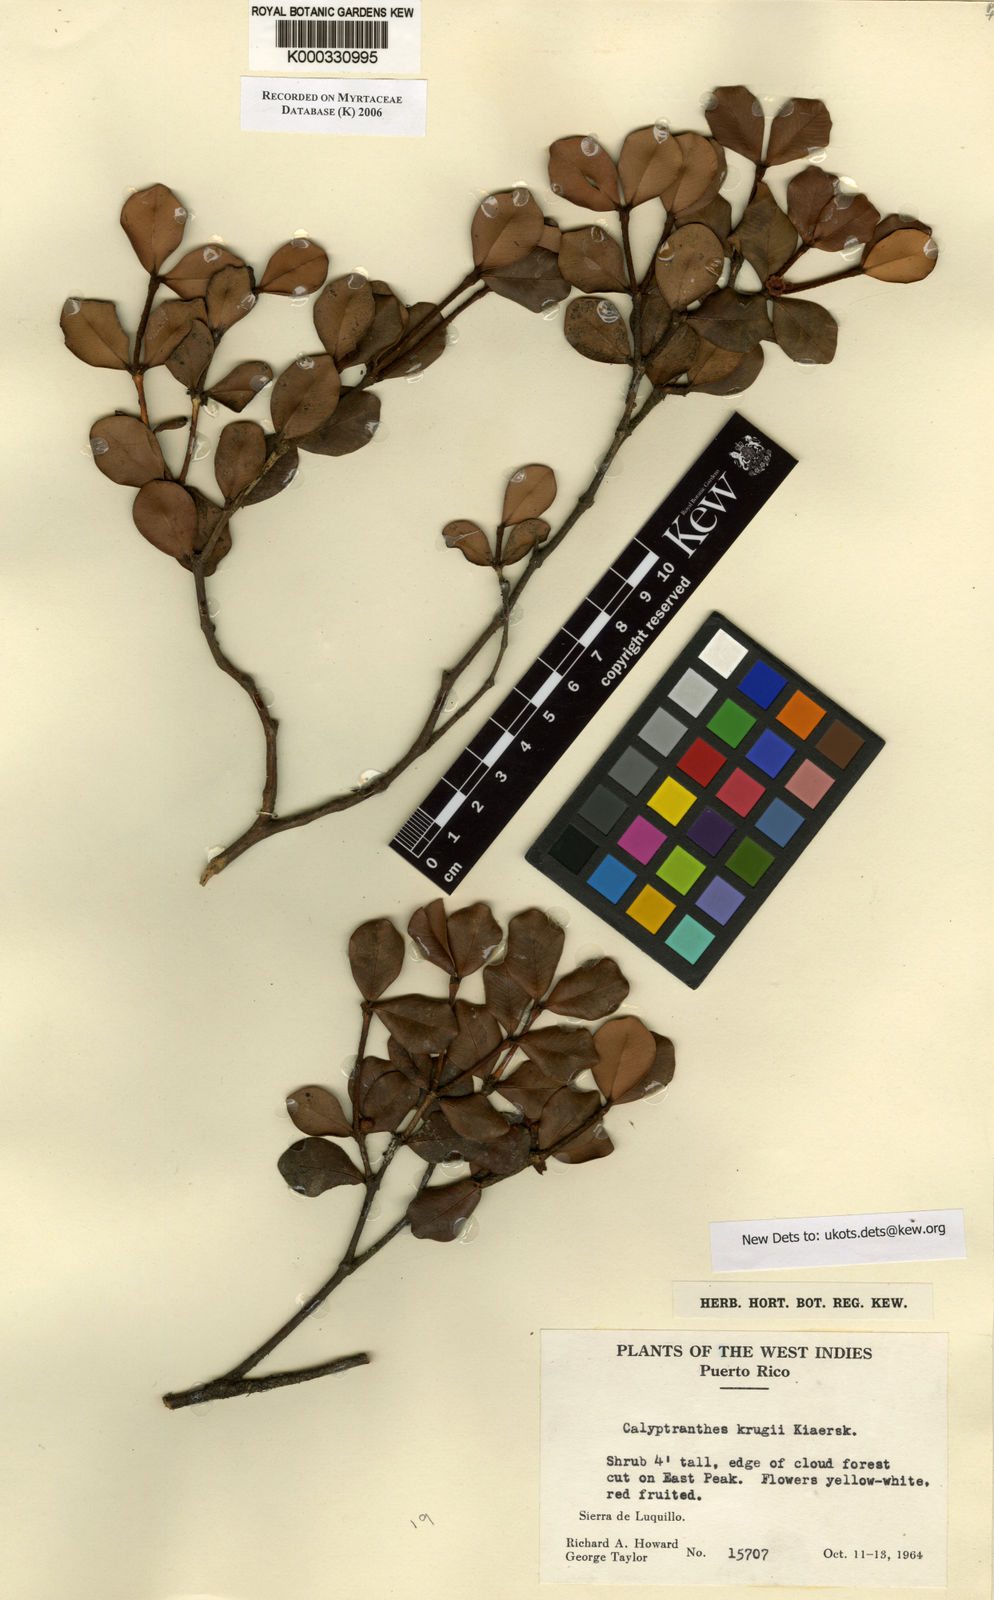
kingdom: Plantae
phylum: Tracheophyta
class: Magnoliopsida
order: Myrtales
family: Myrtaceae
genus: Myrcia
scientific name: Myrcia krugii
